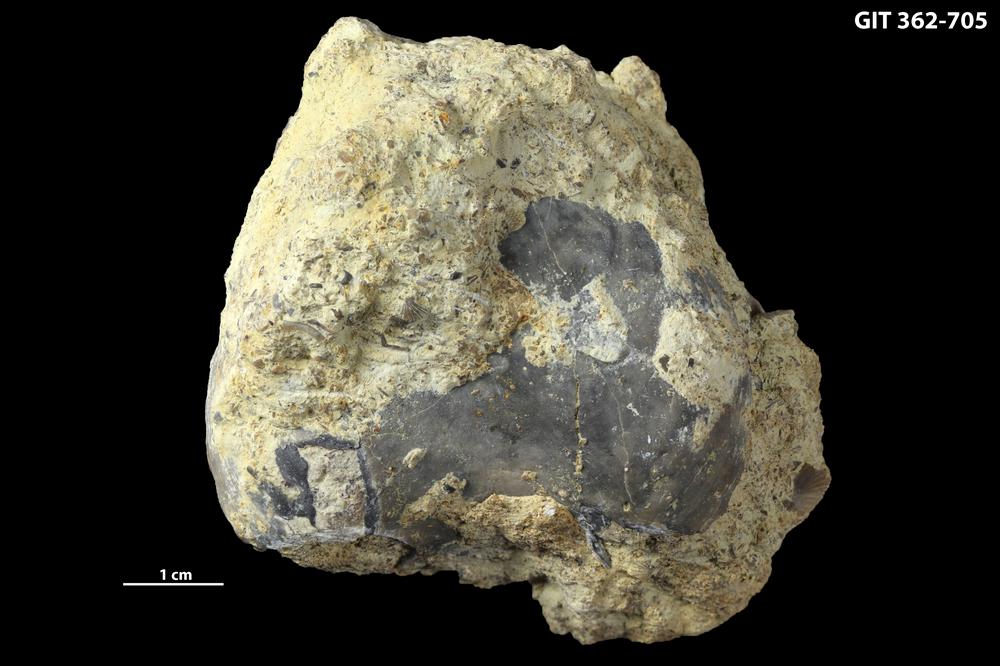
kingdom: Animalia
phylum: Brachiopoda
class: Rhynchonellata
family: Porambonitidae
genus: Porambonites
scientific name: Porambonites
